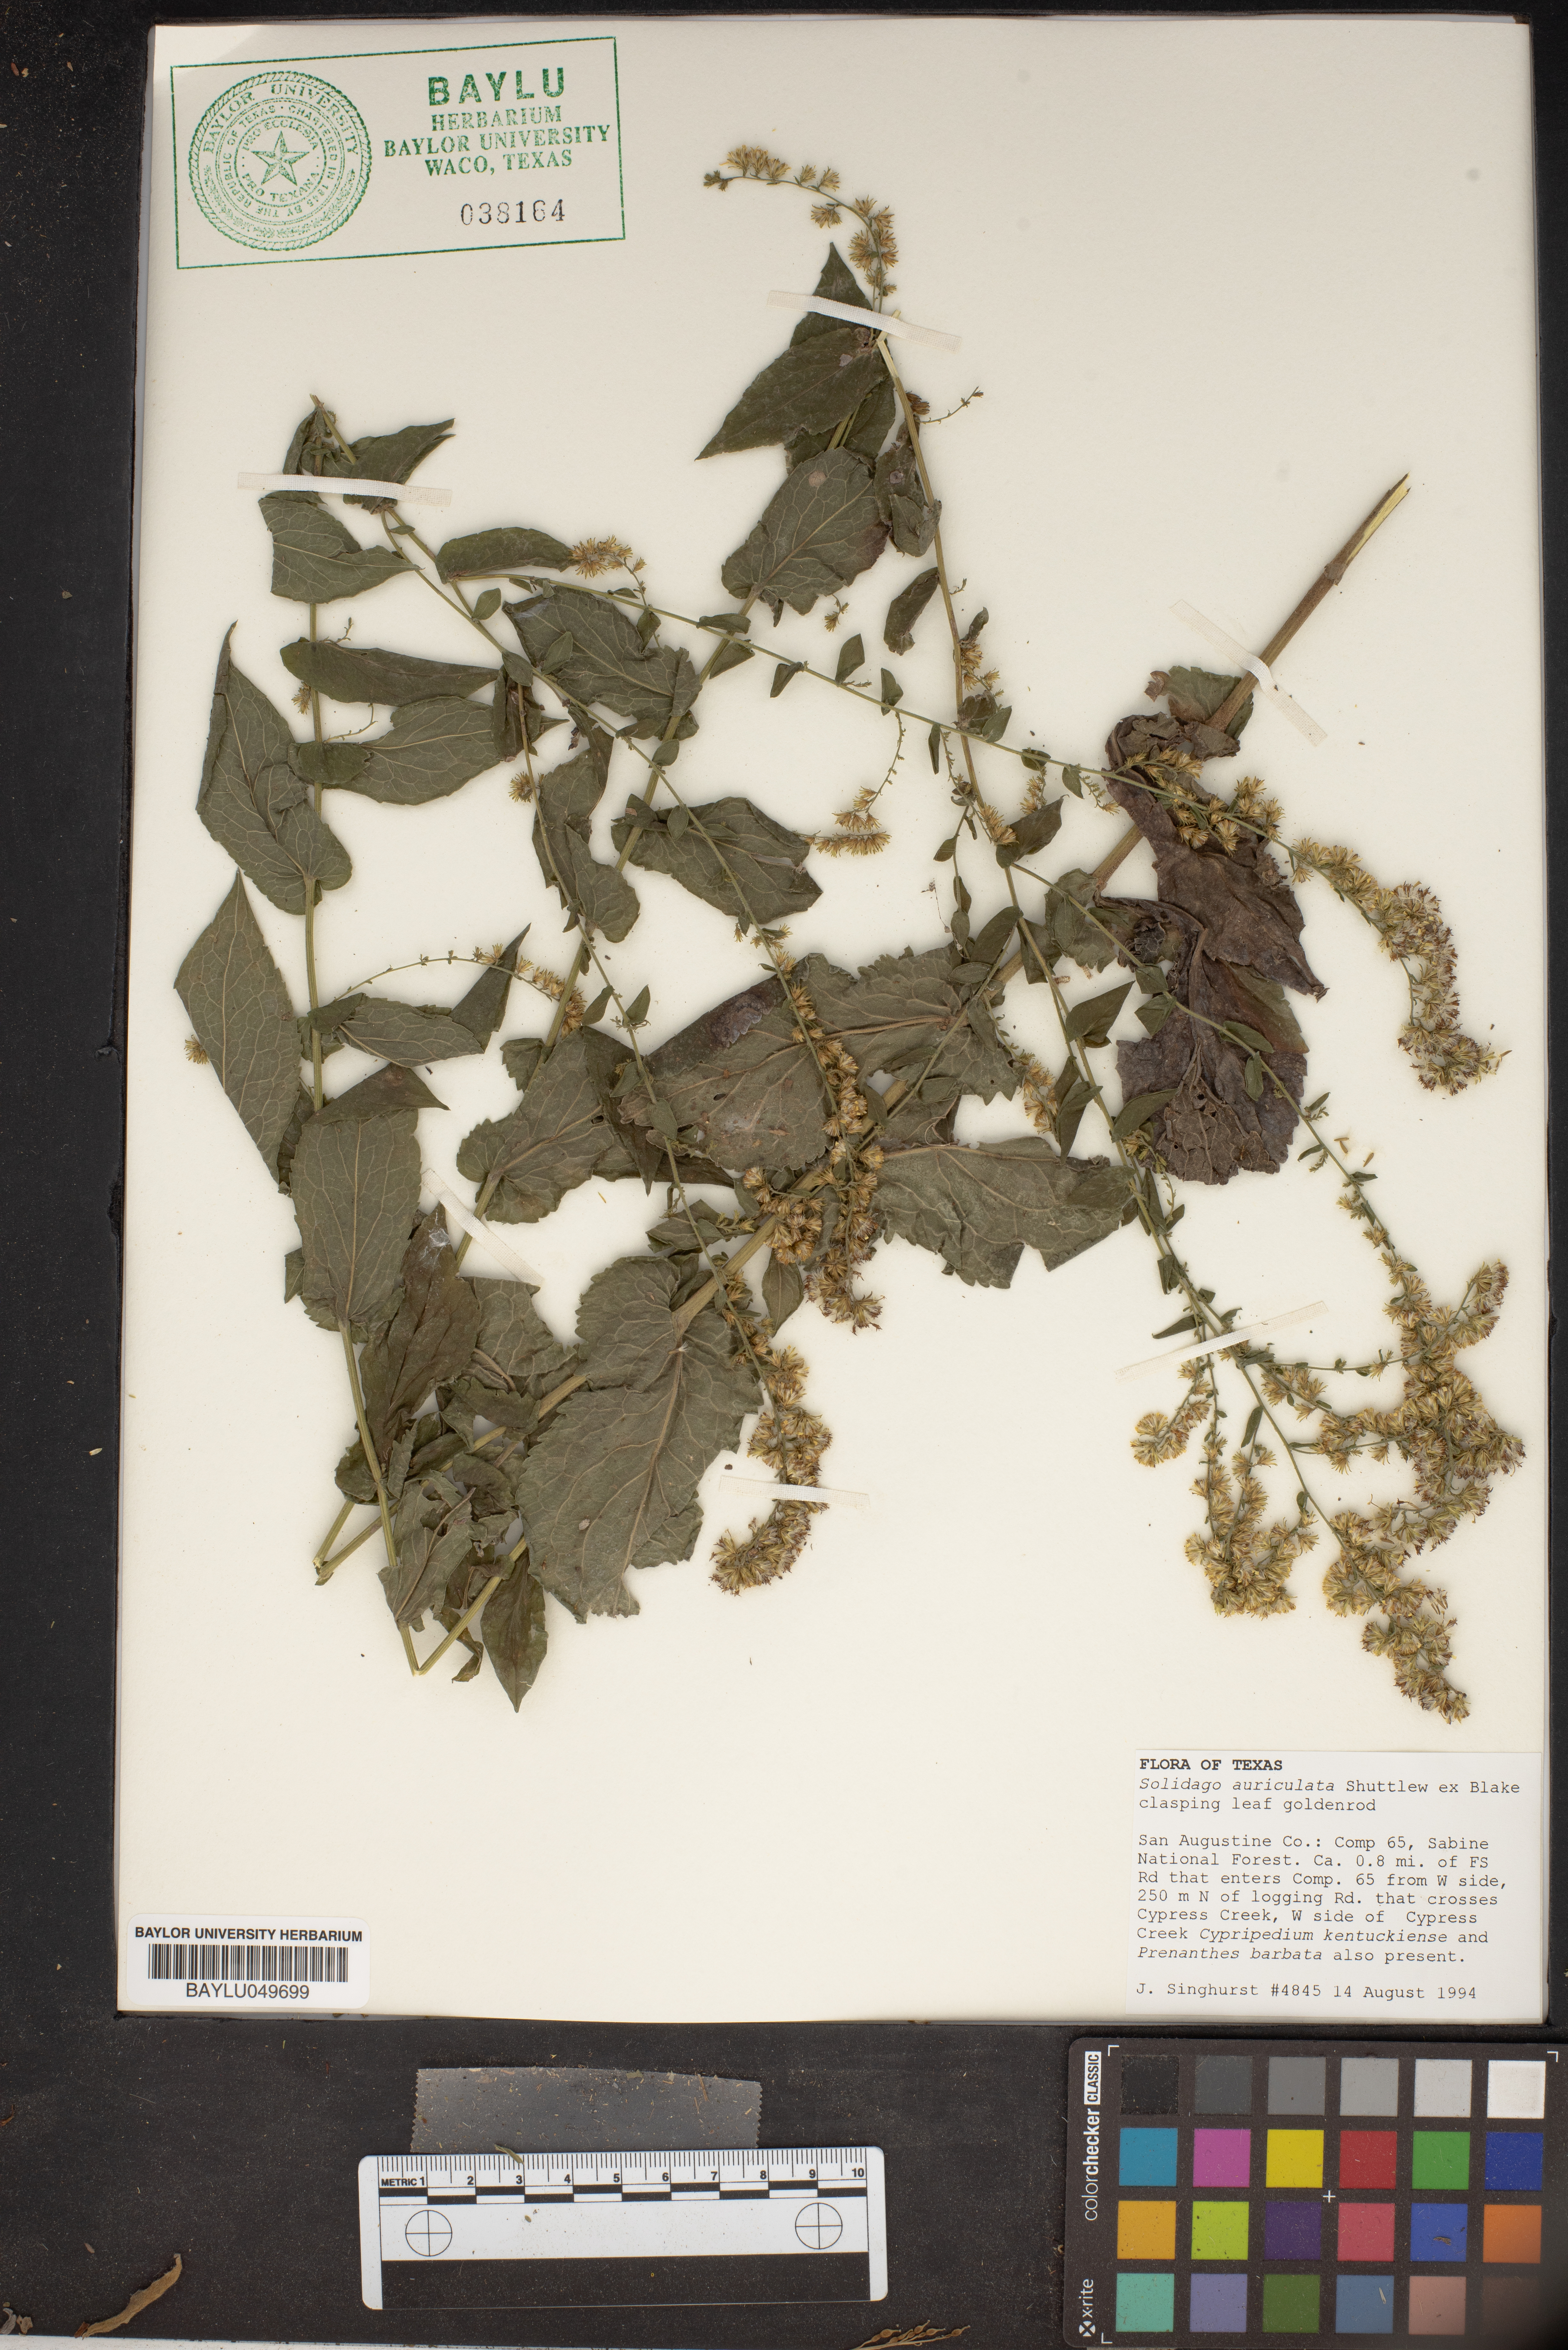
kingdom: Plantae
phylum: Tracheophyta
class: Magnoliopsida
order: Asterales
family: Asteraceae
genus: Solidago
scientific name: Solidago auriculata
